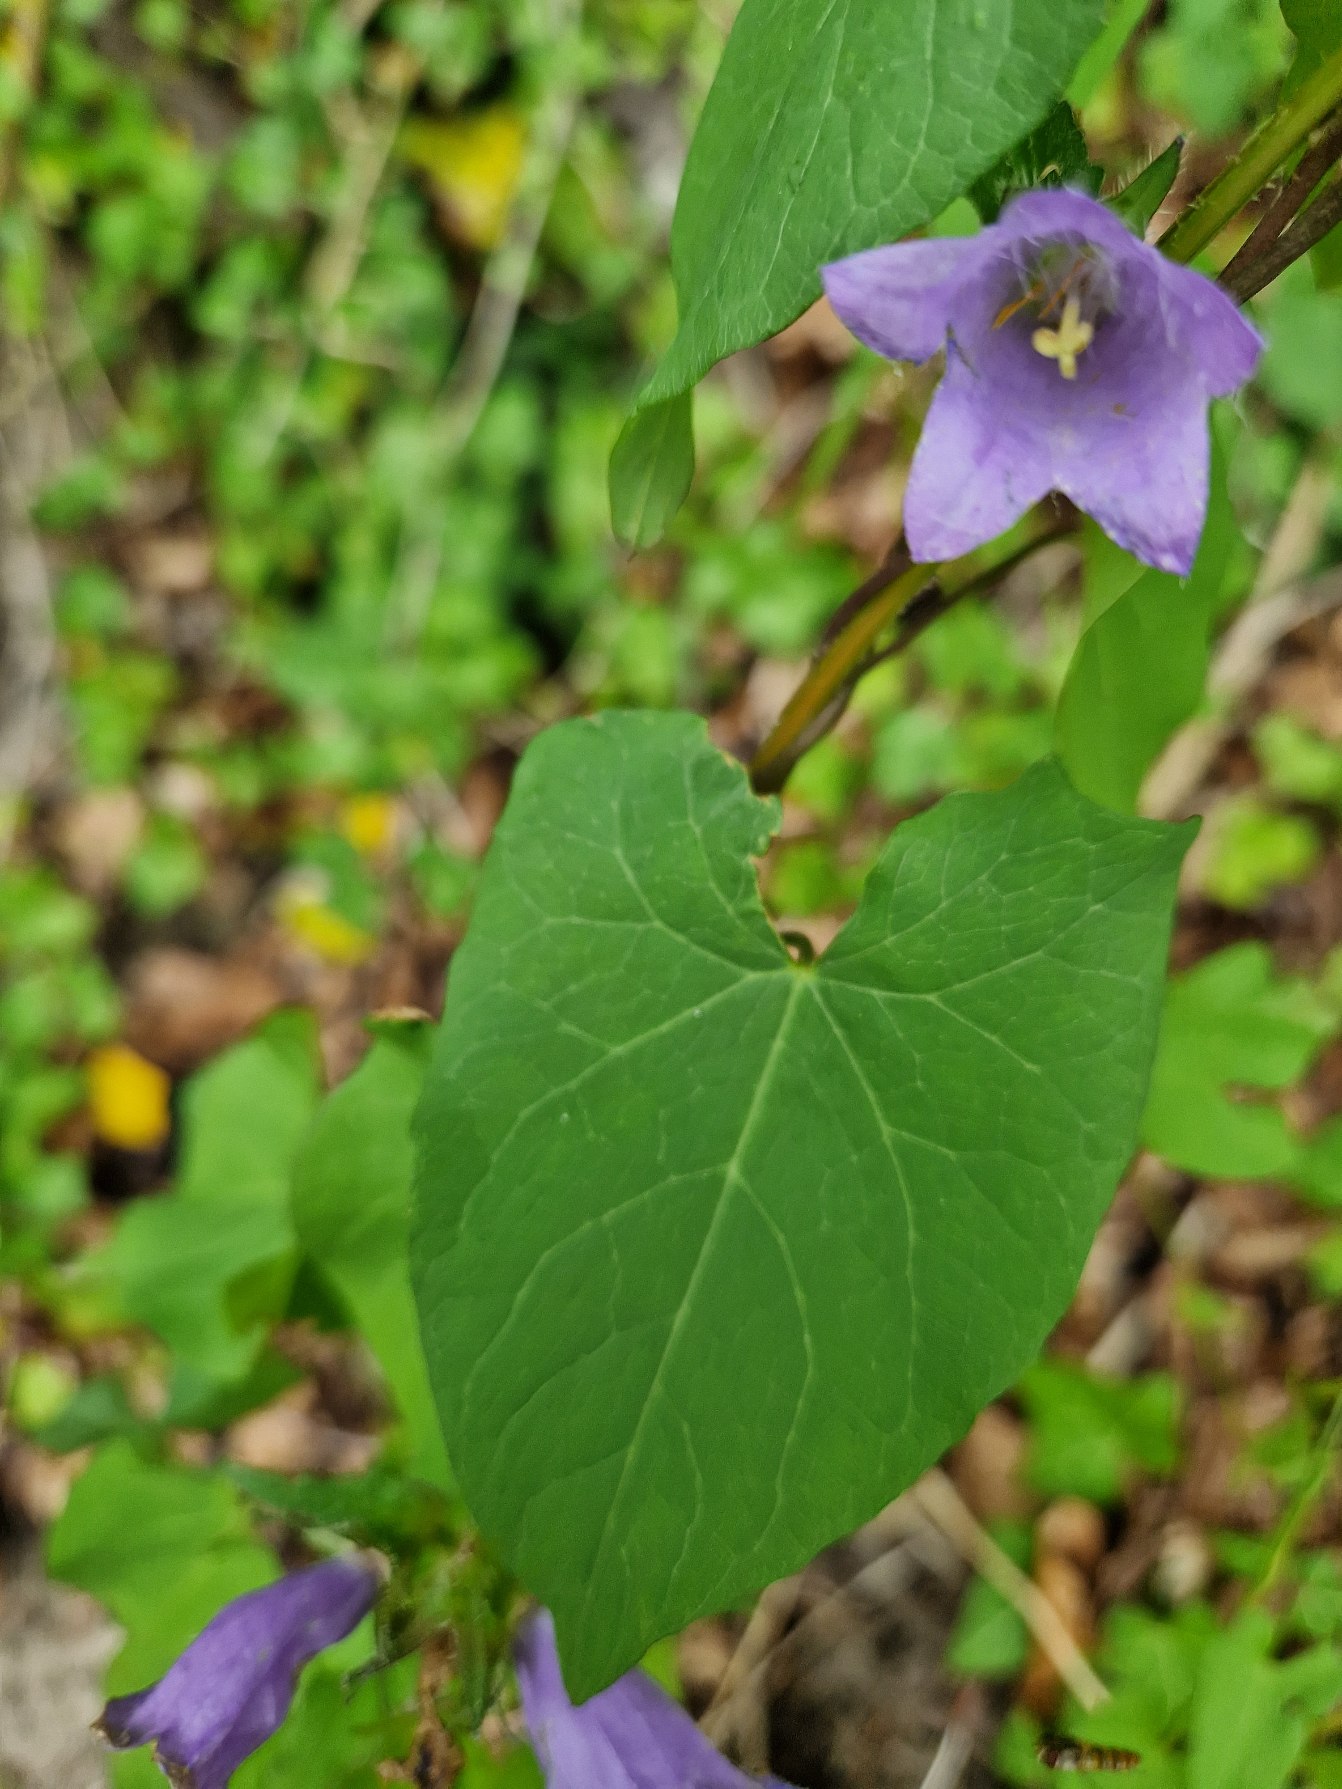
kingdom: Plantae
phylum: Tracheophyta
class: Magnoliopsida
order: Asterales
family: Campanulaceae
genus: Campanula
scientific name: Campanula
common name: Klokkeslægten
